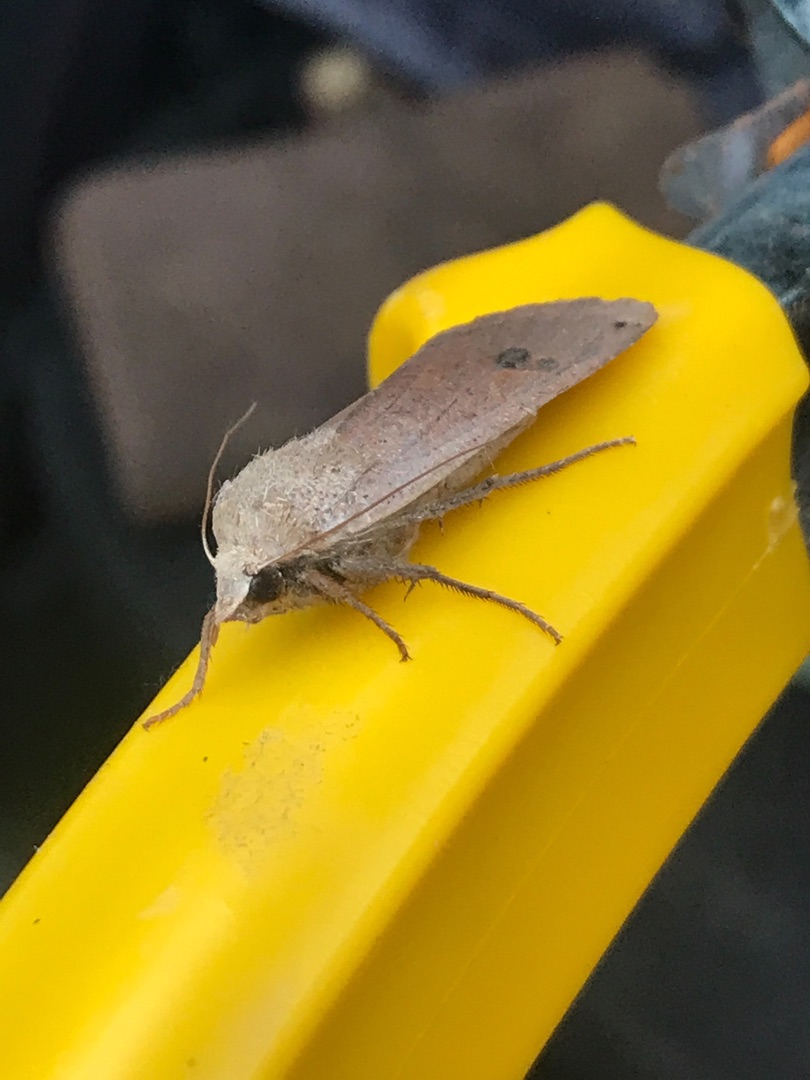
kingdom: Animalia
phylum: Arthropoda
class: Insecta
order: Lepidoptera
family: Noctuidae
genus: Noctua
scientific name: Noctua pronuba
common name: Stor smutugle
